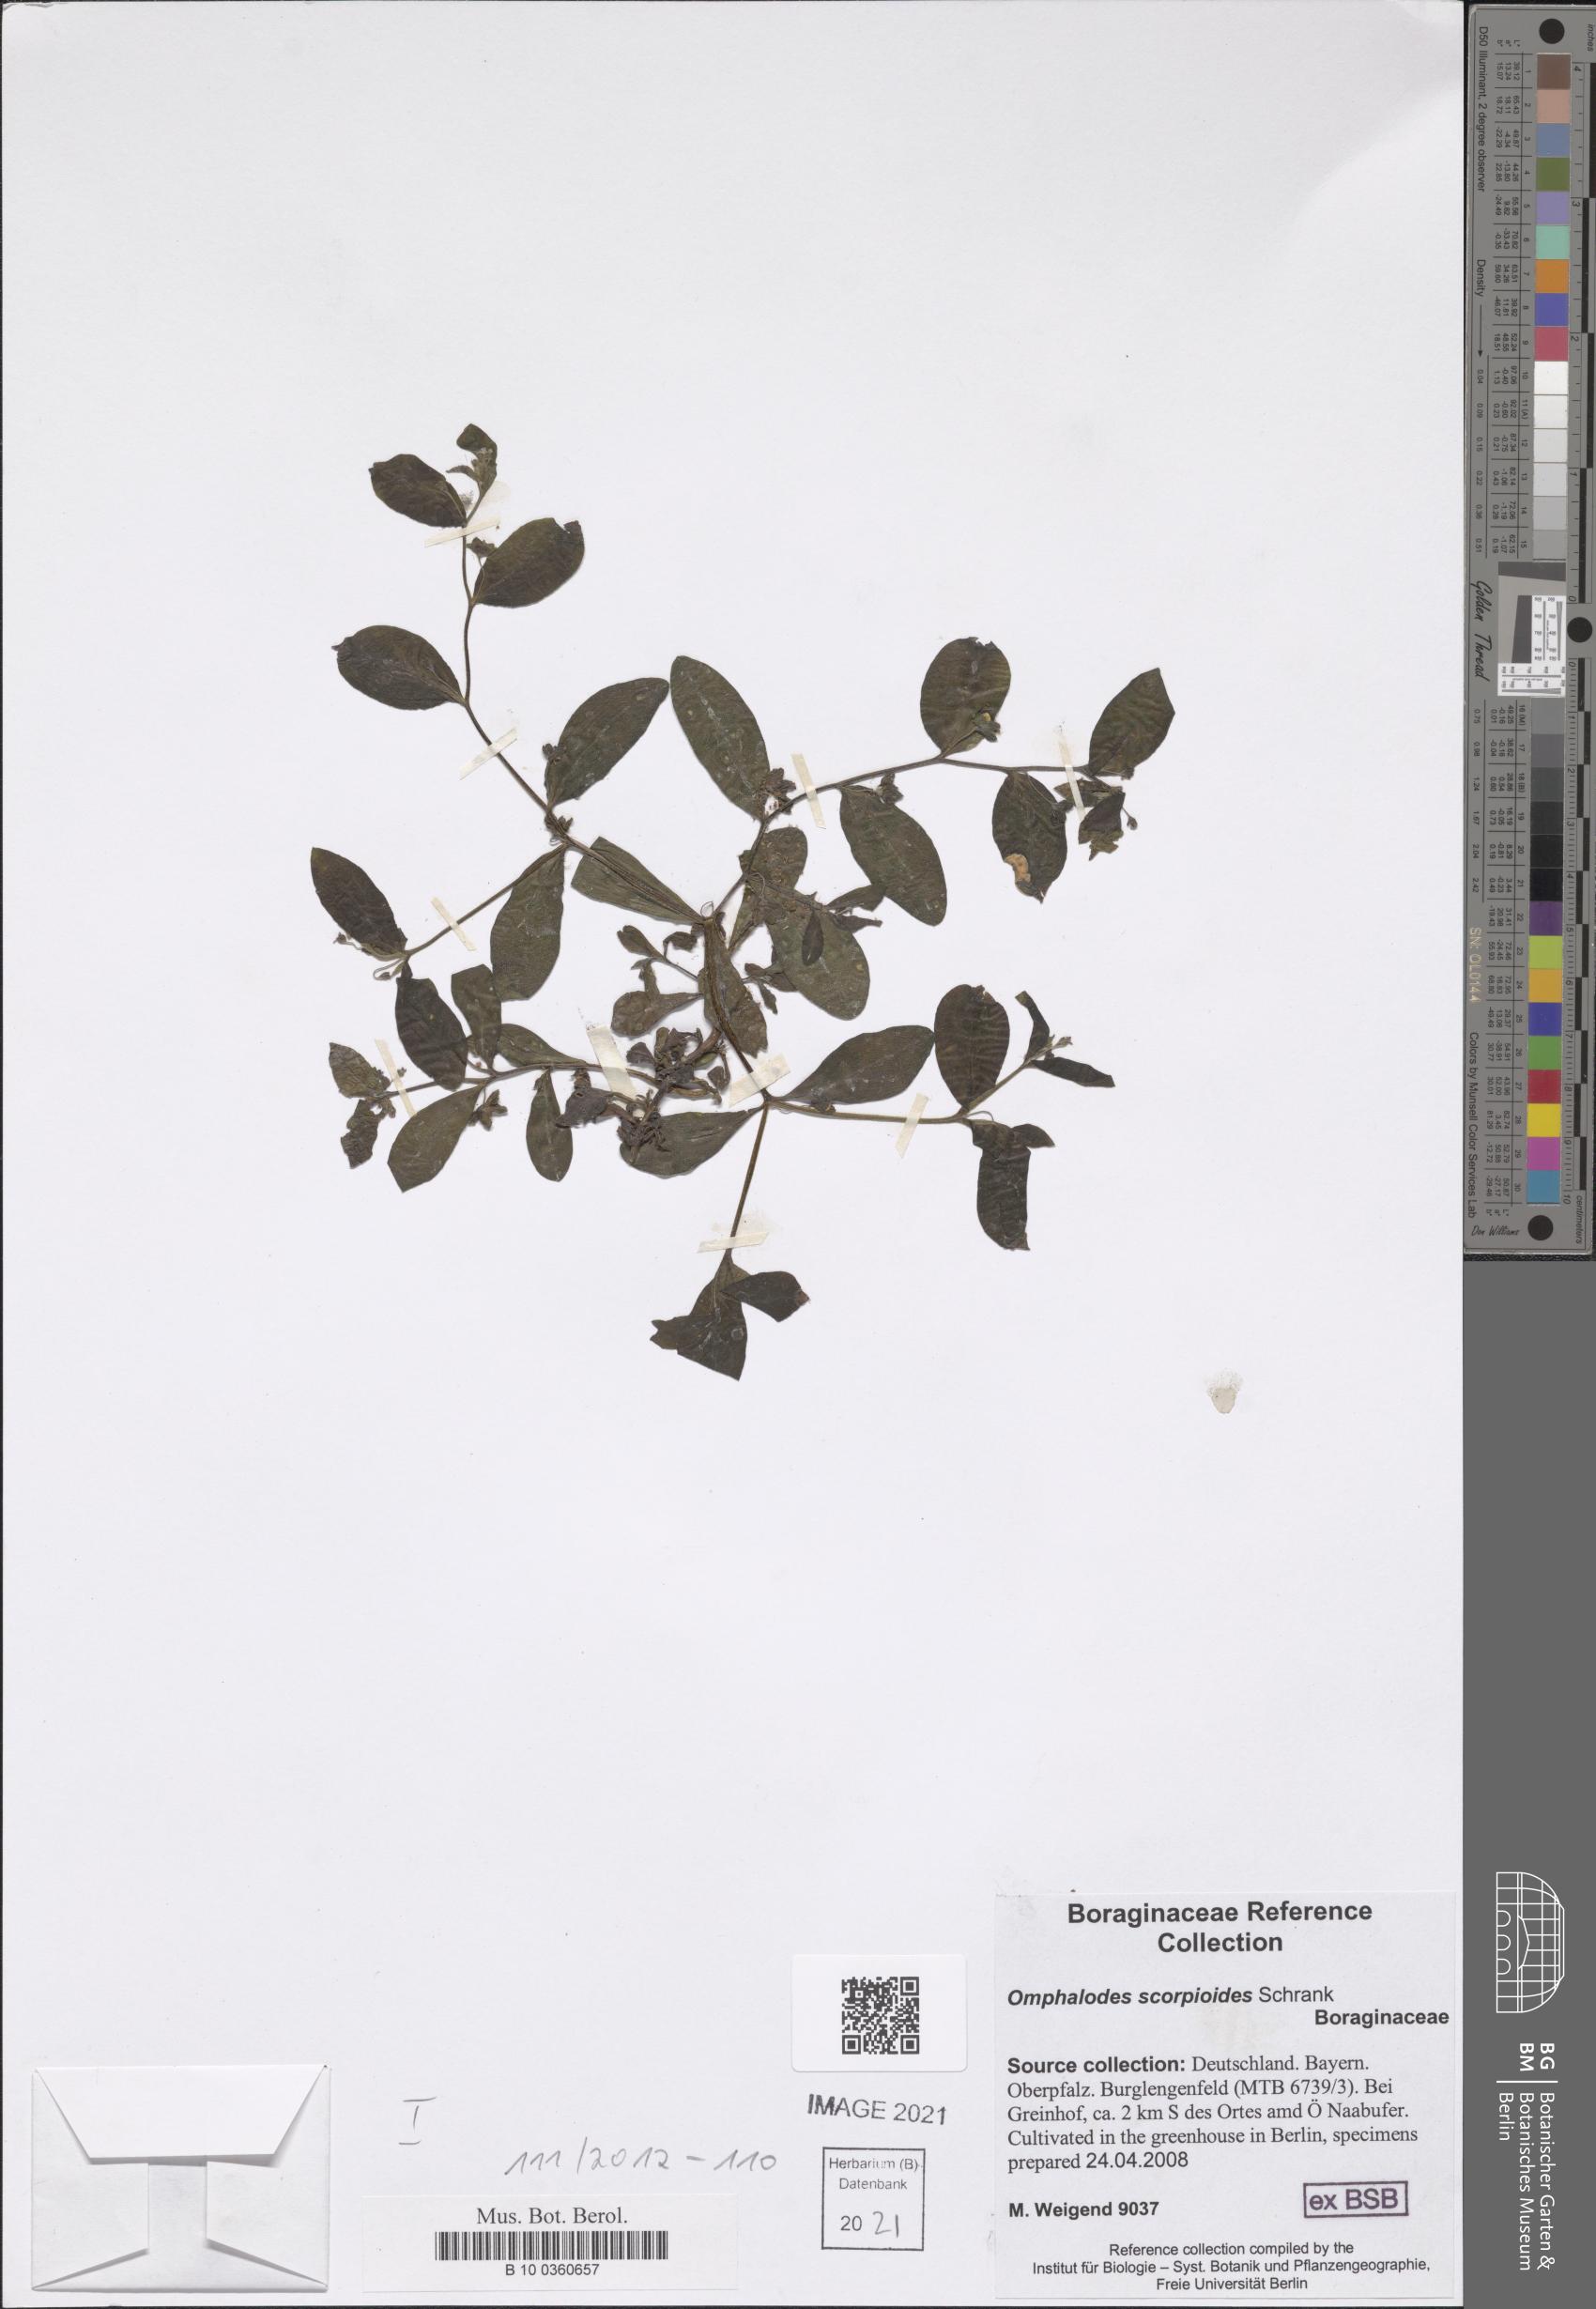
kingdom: Plantae
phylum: Tracheophyta
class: Magnoliopsida
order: Boraginales
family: Boraginaceae
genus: Memoremea
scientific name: Memoremea scorpioides
